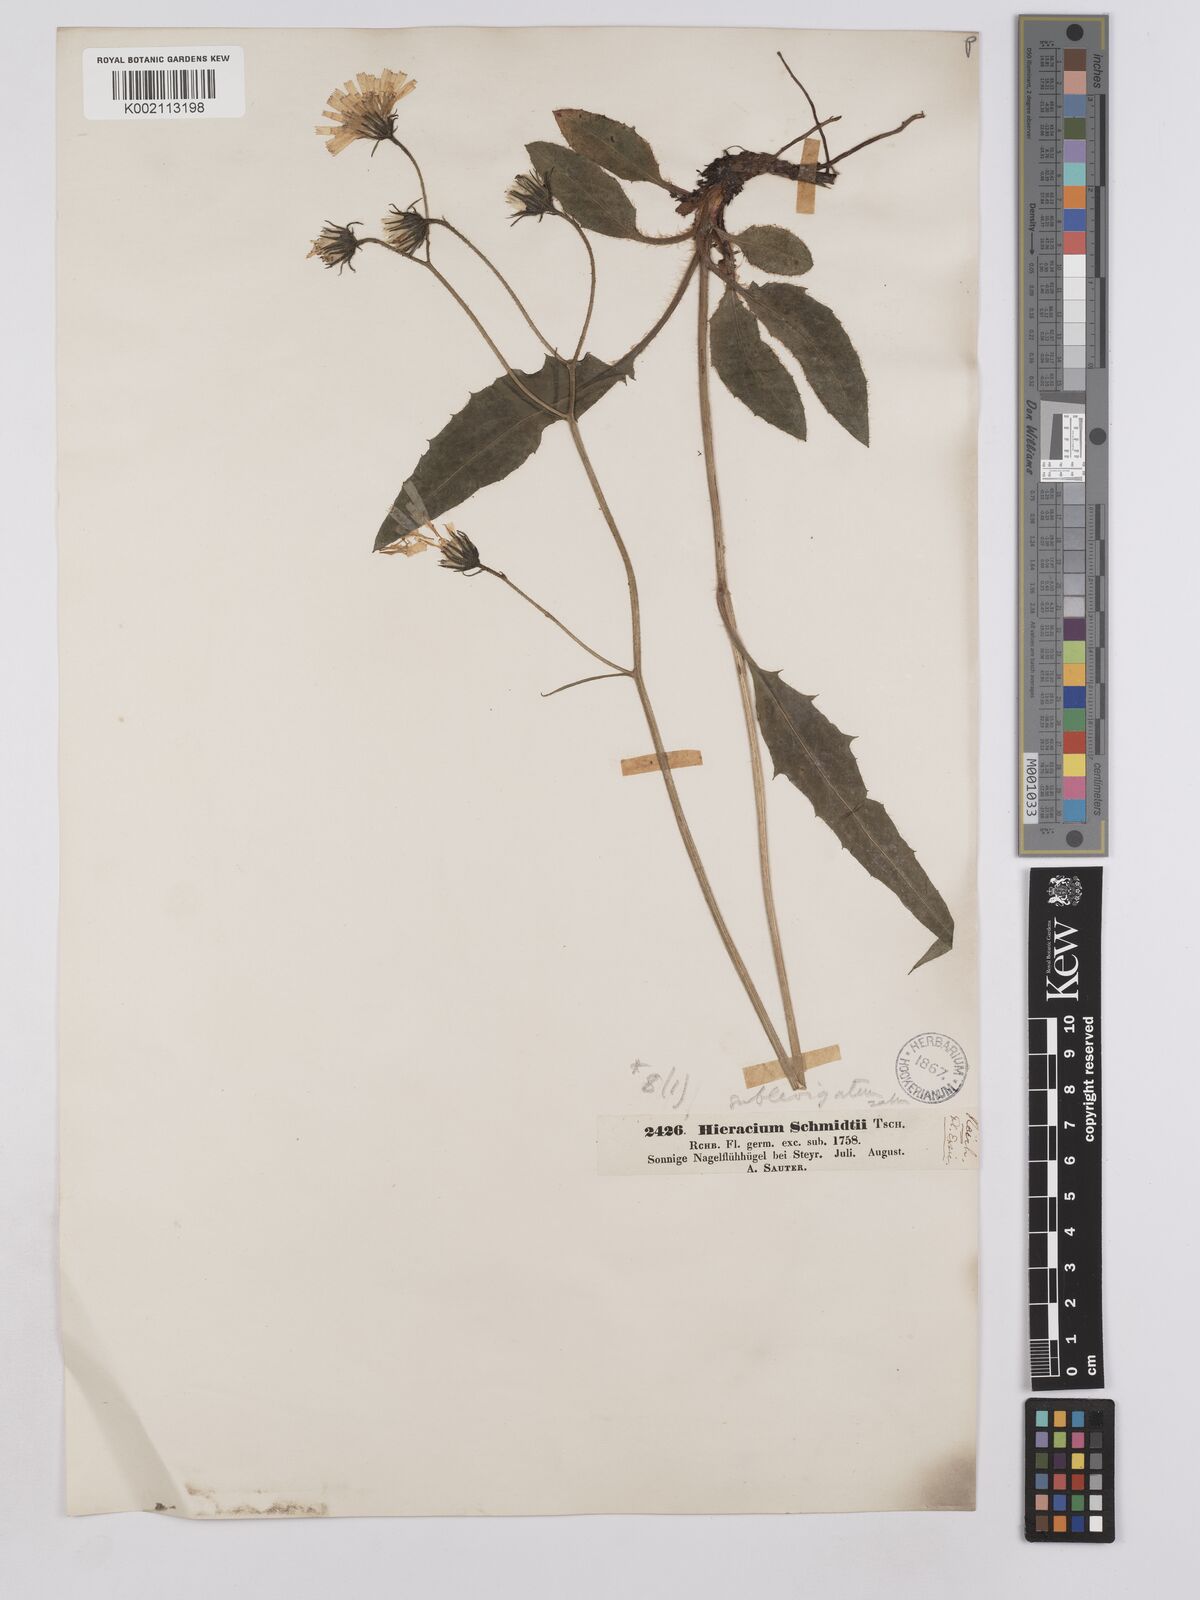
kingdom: Plantae
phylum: Tracheophyta
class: Magnoliopsida
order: Asterales
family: Asteraceae
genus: Crepis
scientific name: Crepis blattarioides
